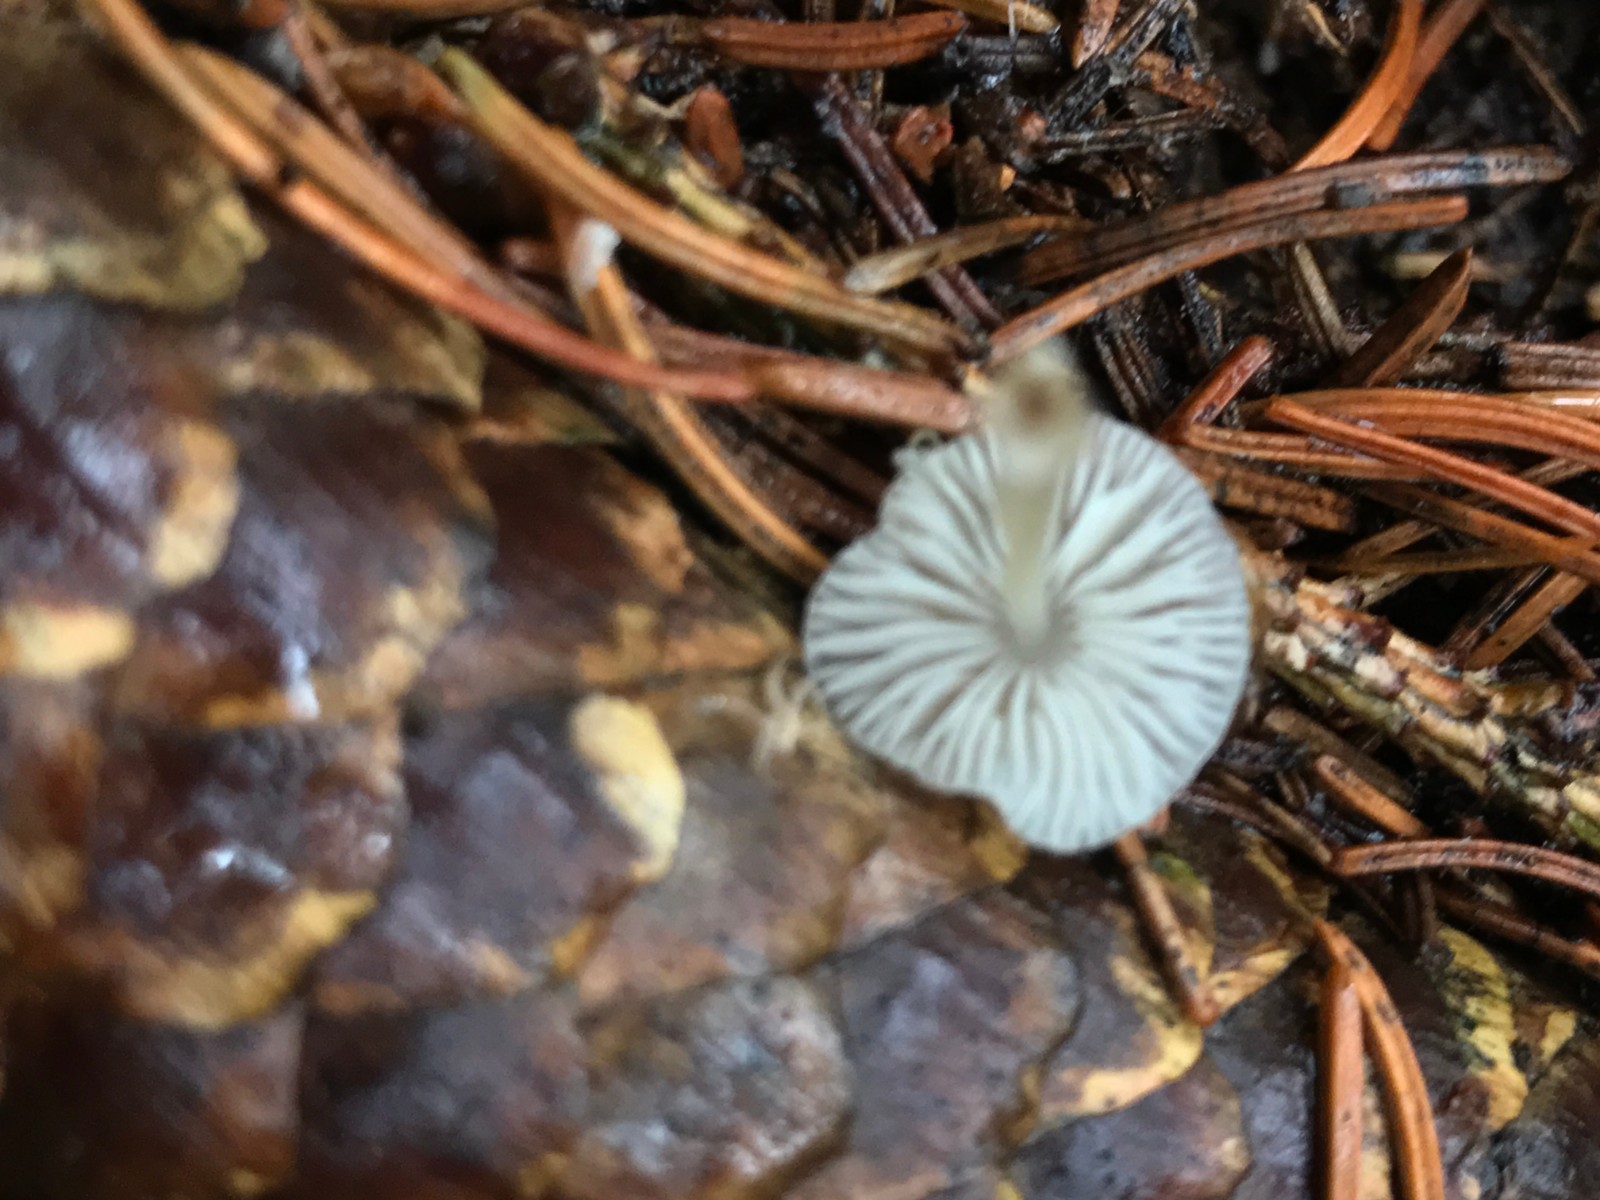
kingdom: Fungi
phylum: Basidiomycota
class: Agaricomycetes
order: Agaricales
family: Mycenaceae
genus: Mycena
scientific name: Mycena stylobates
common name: fureskivet huesvamp
